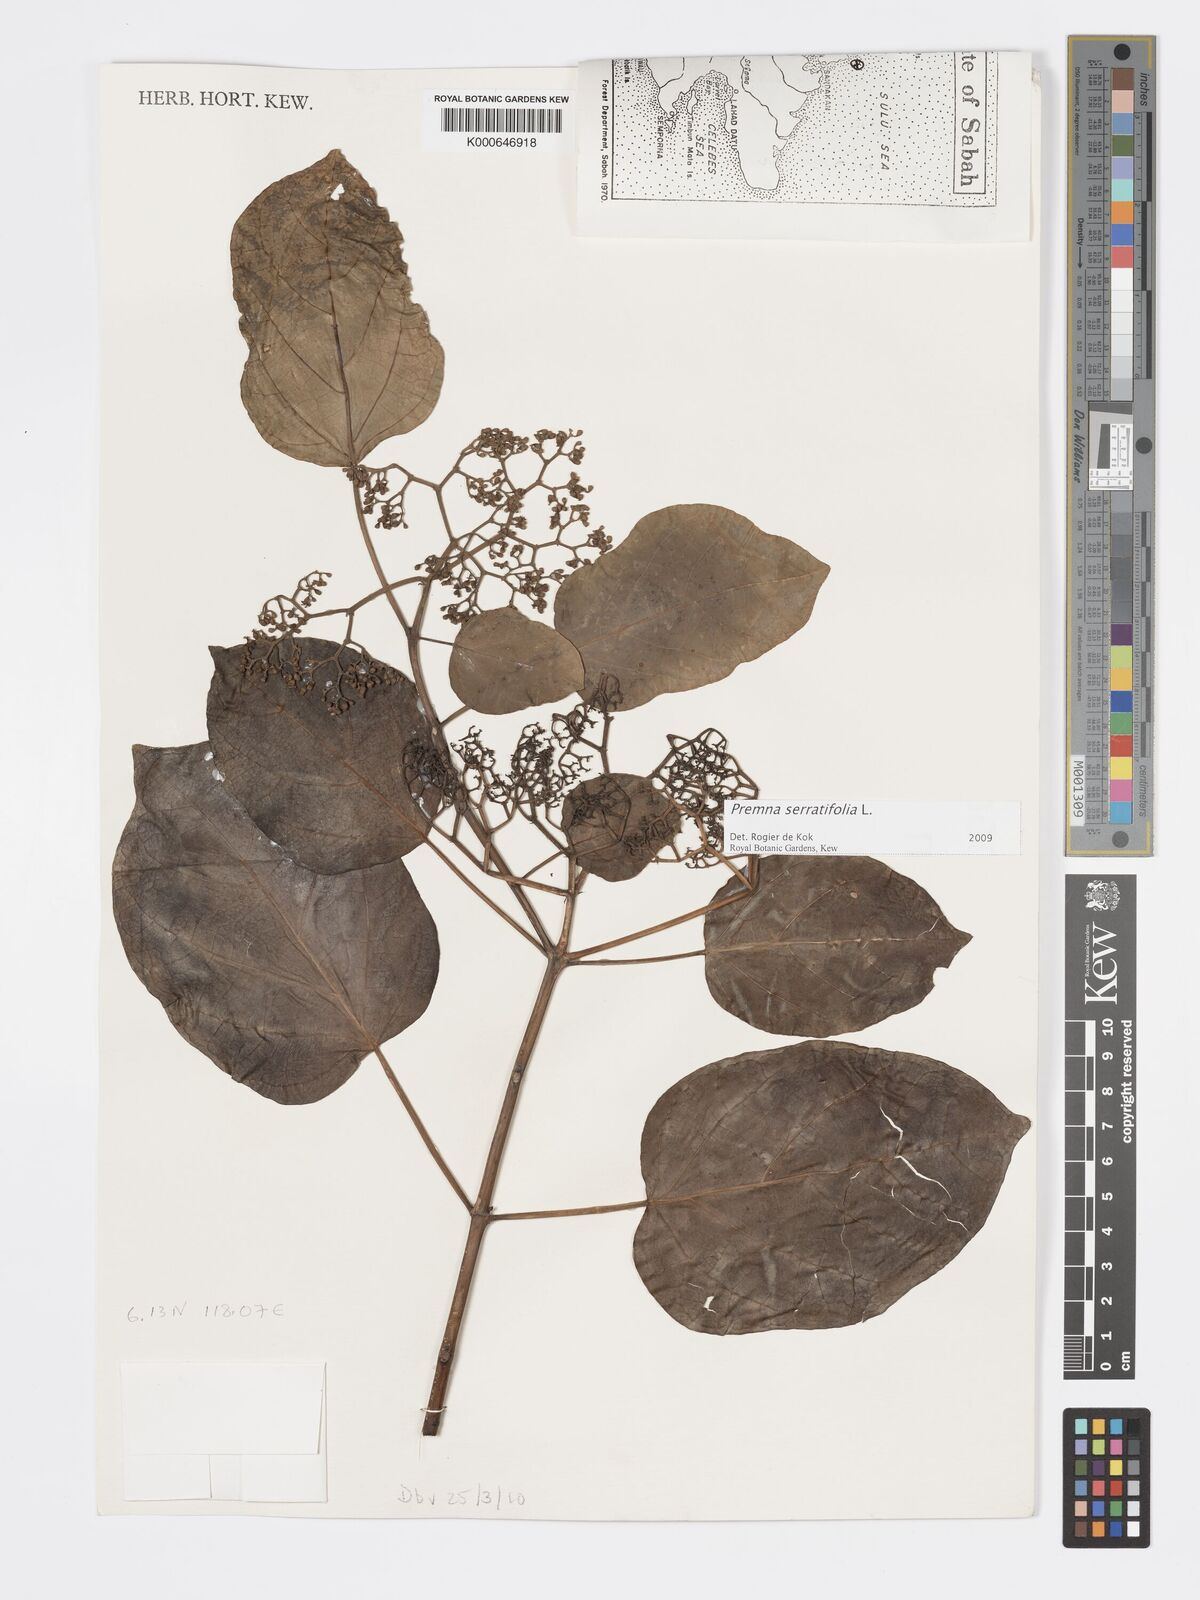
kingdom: Plantae
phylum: Tracheophyta
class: Magnoliopsida
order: Lamiales
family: Lamiaceae
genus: Premna
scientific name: Premna serratifolia
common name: Bastard guelder
